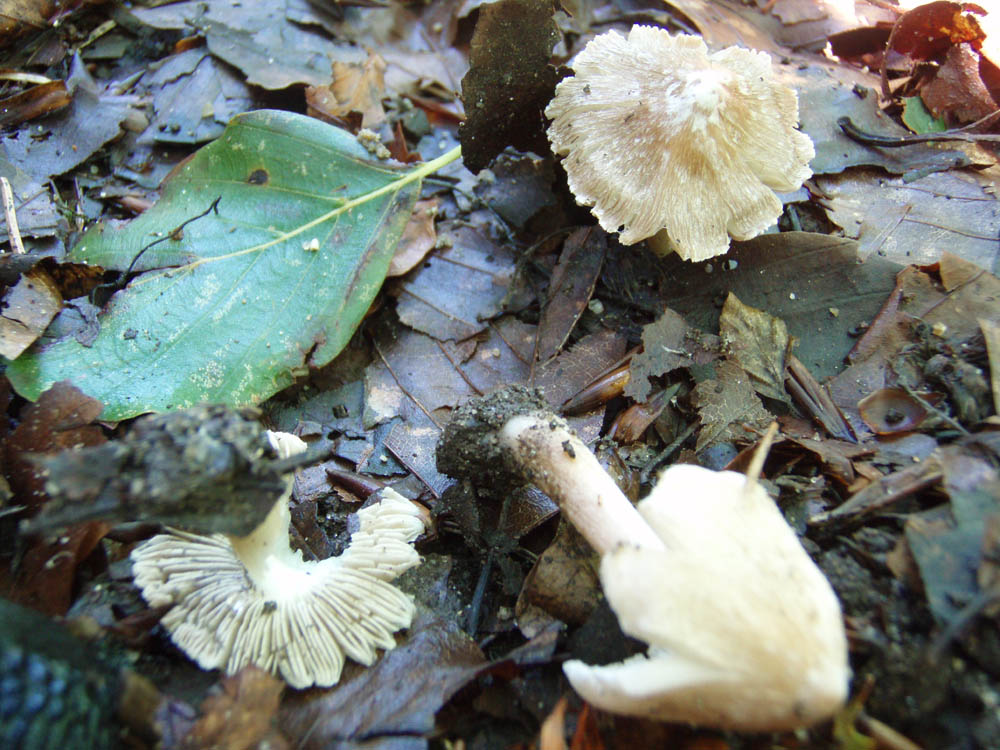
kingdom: Fungi
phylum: Basidiomycota
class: Agaricomycetes
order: Agaricales
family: Inocybaceae
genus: Inocybe
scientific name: Inocybe
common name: trævlhat
